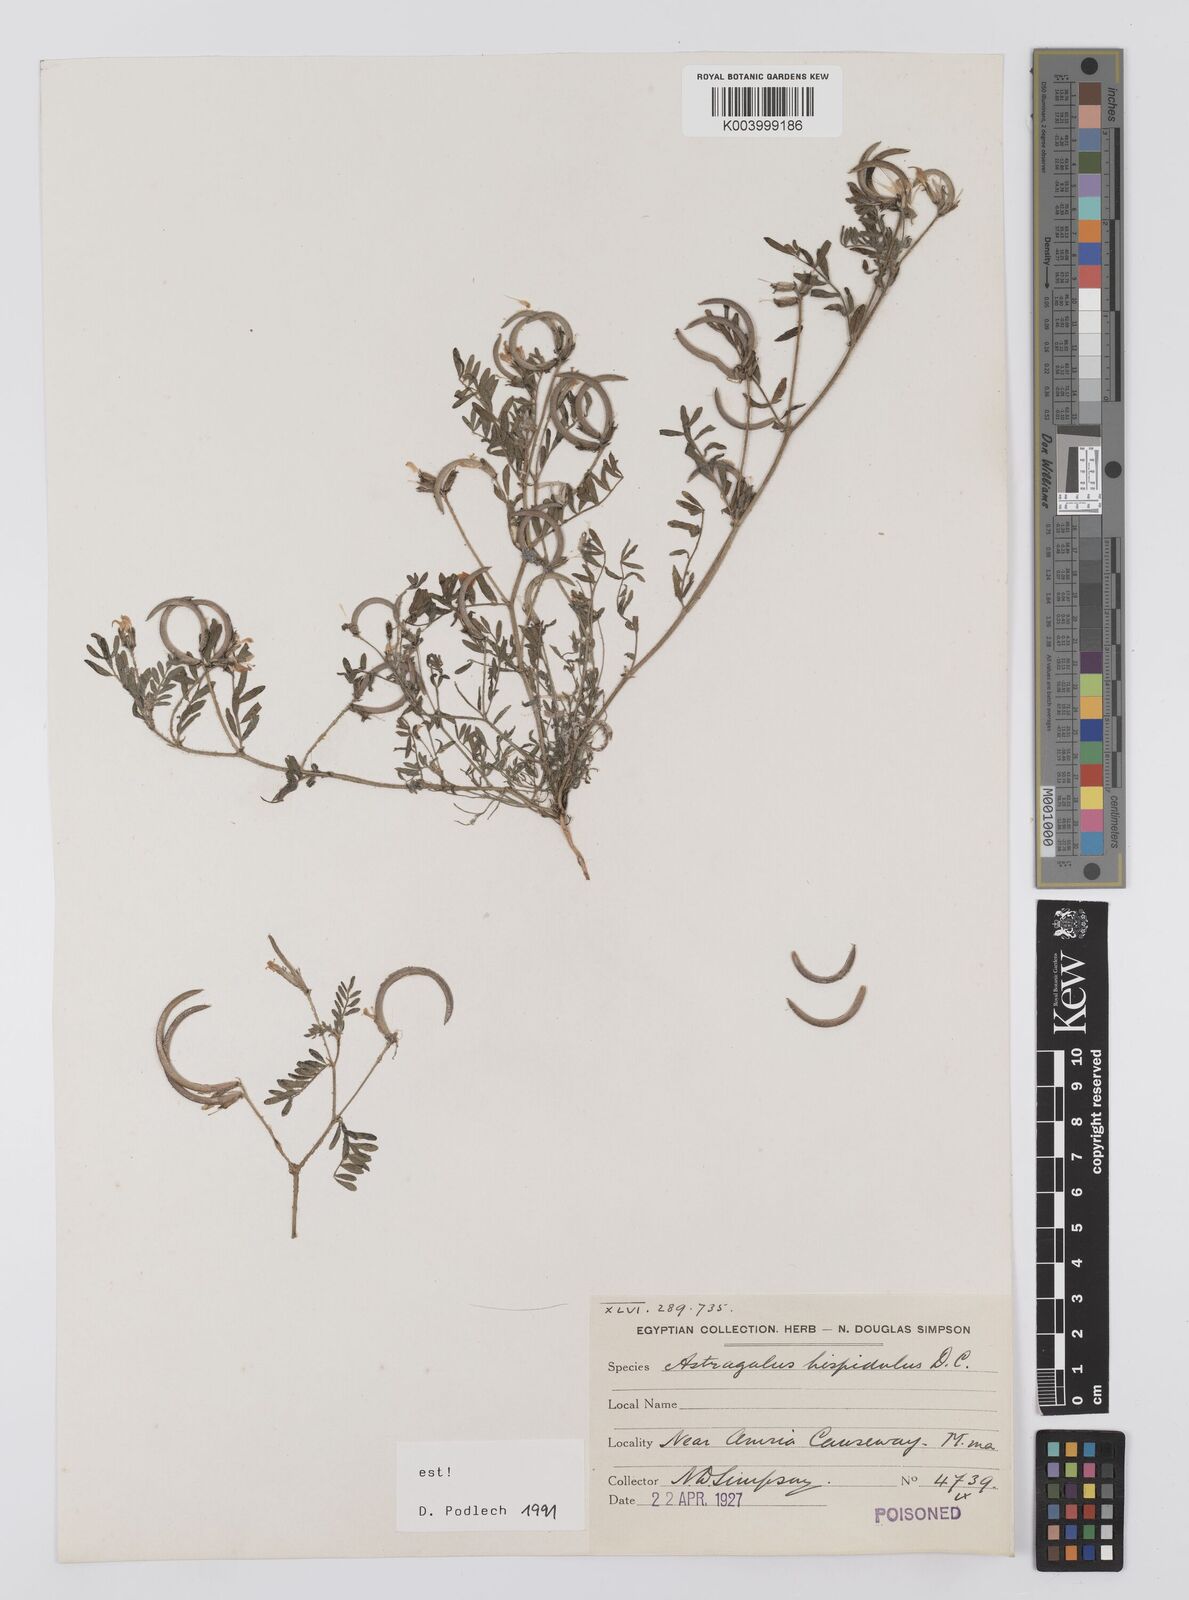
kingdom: Plantae
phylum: Tracheophyta
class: Magnoliopsida
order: Fabales
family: Fabaceae
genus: Astragalus
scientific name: Astragalus hispidulus
